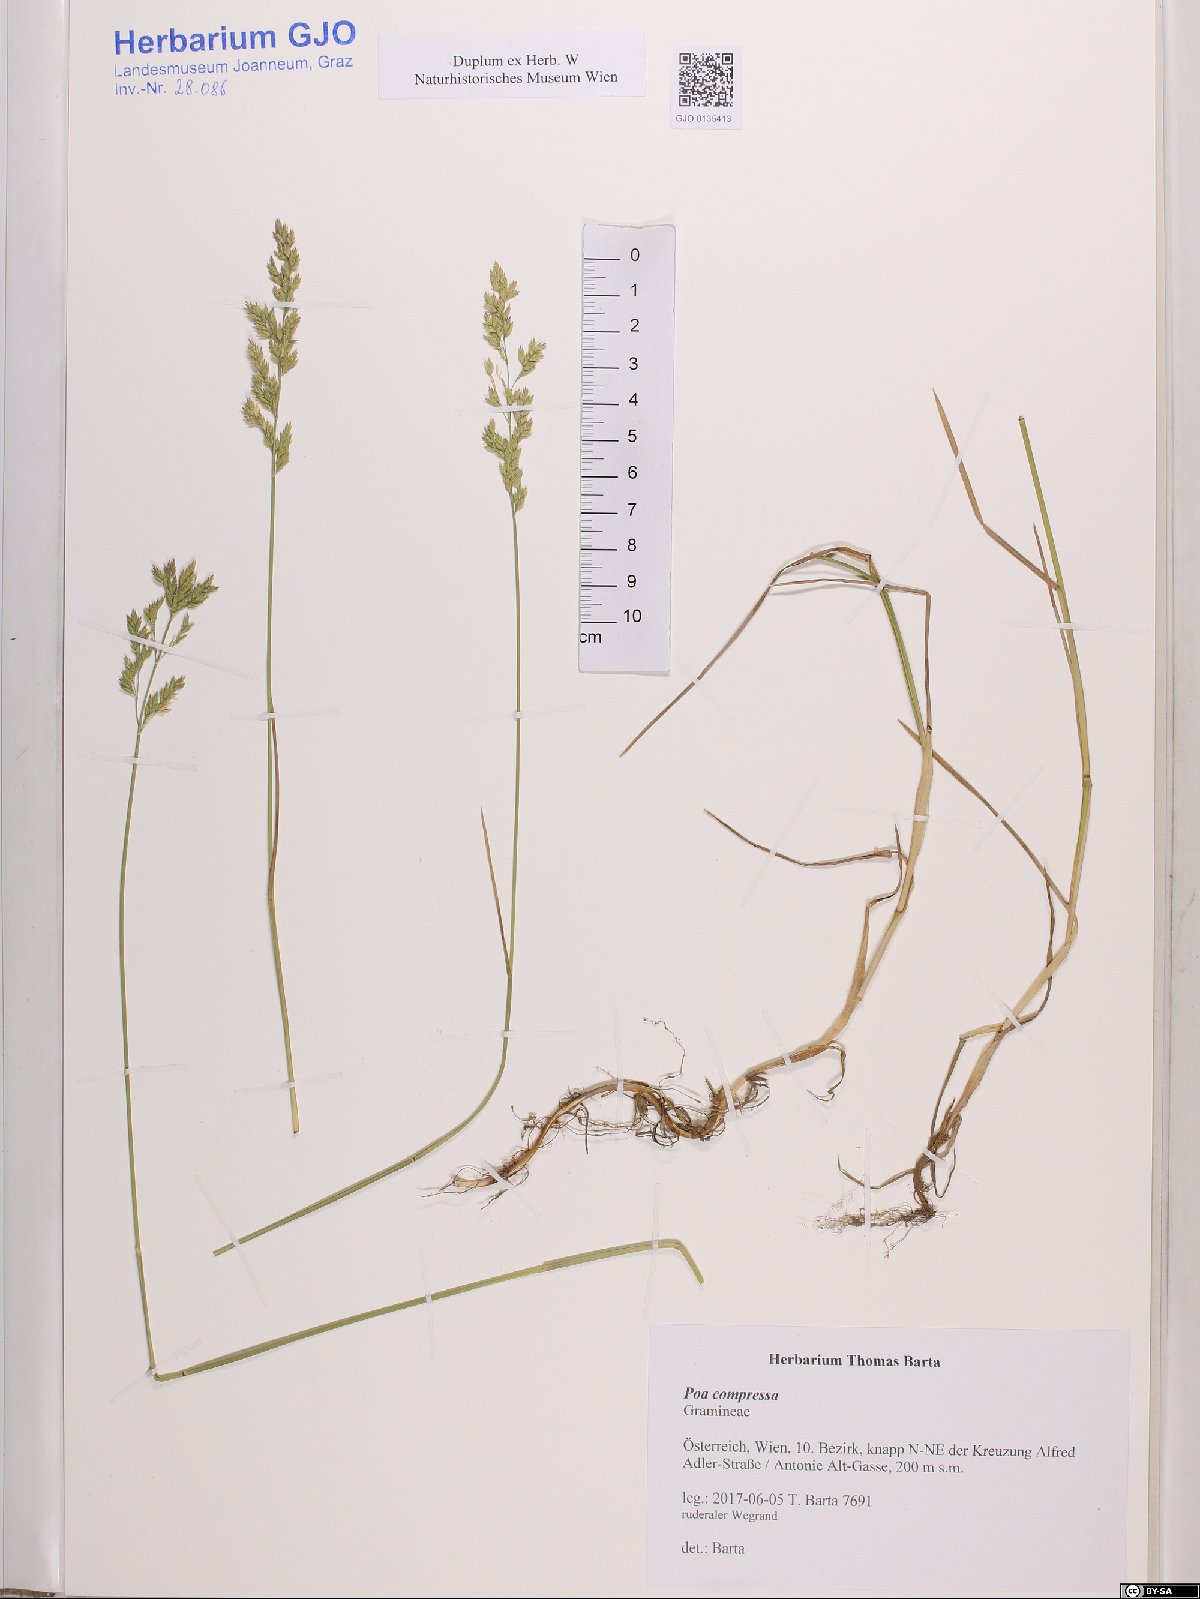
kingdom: Plantae
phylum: Tracheophyta
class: Liliopsida
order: Poales
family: Poaceae
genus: Poa
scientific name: Poa compressa
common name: Canada bluegrass
